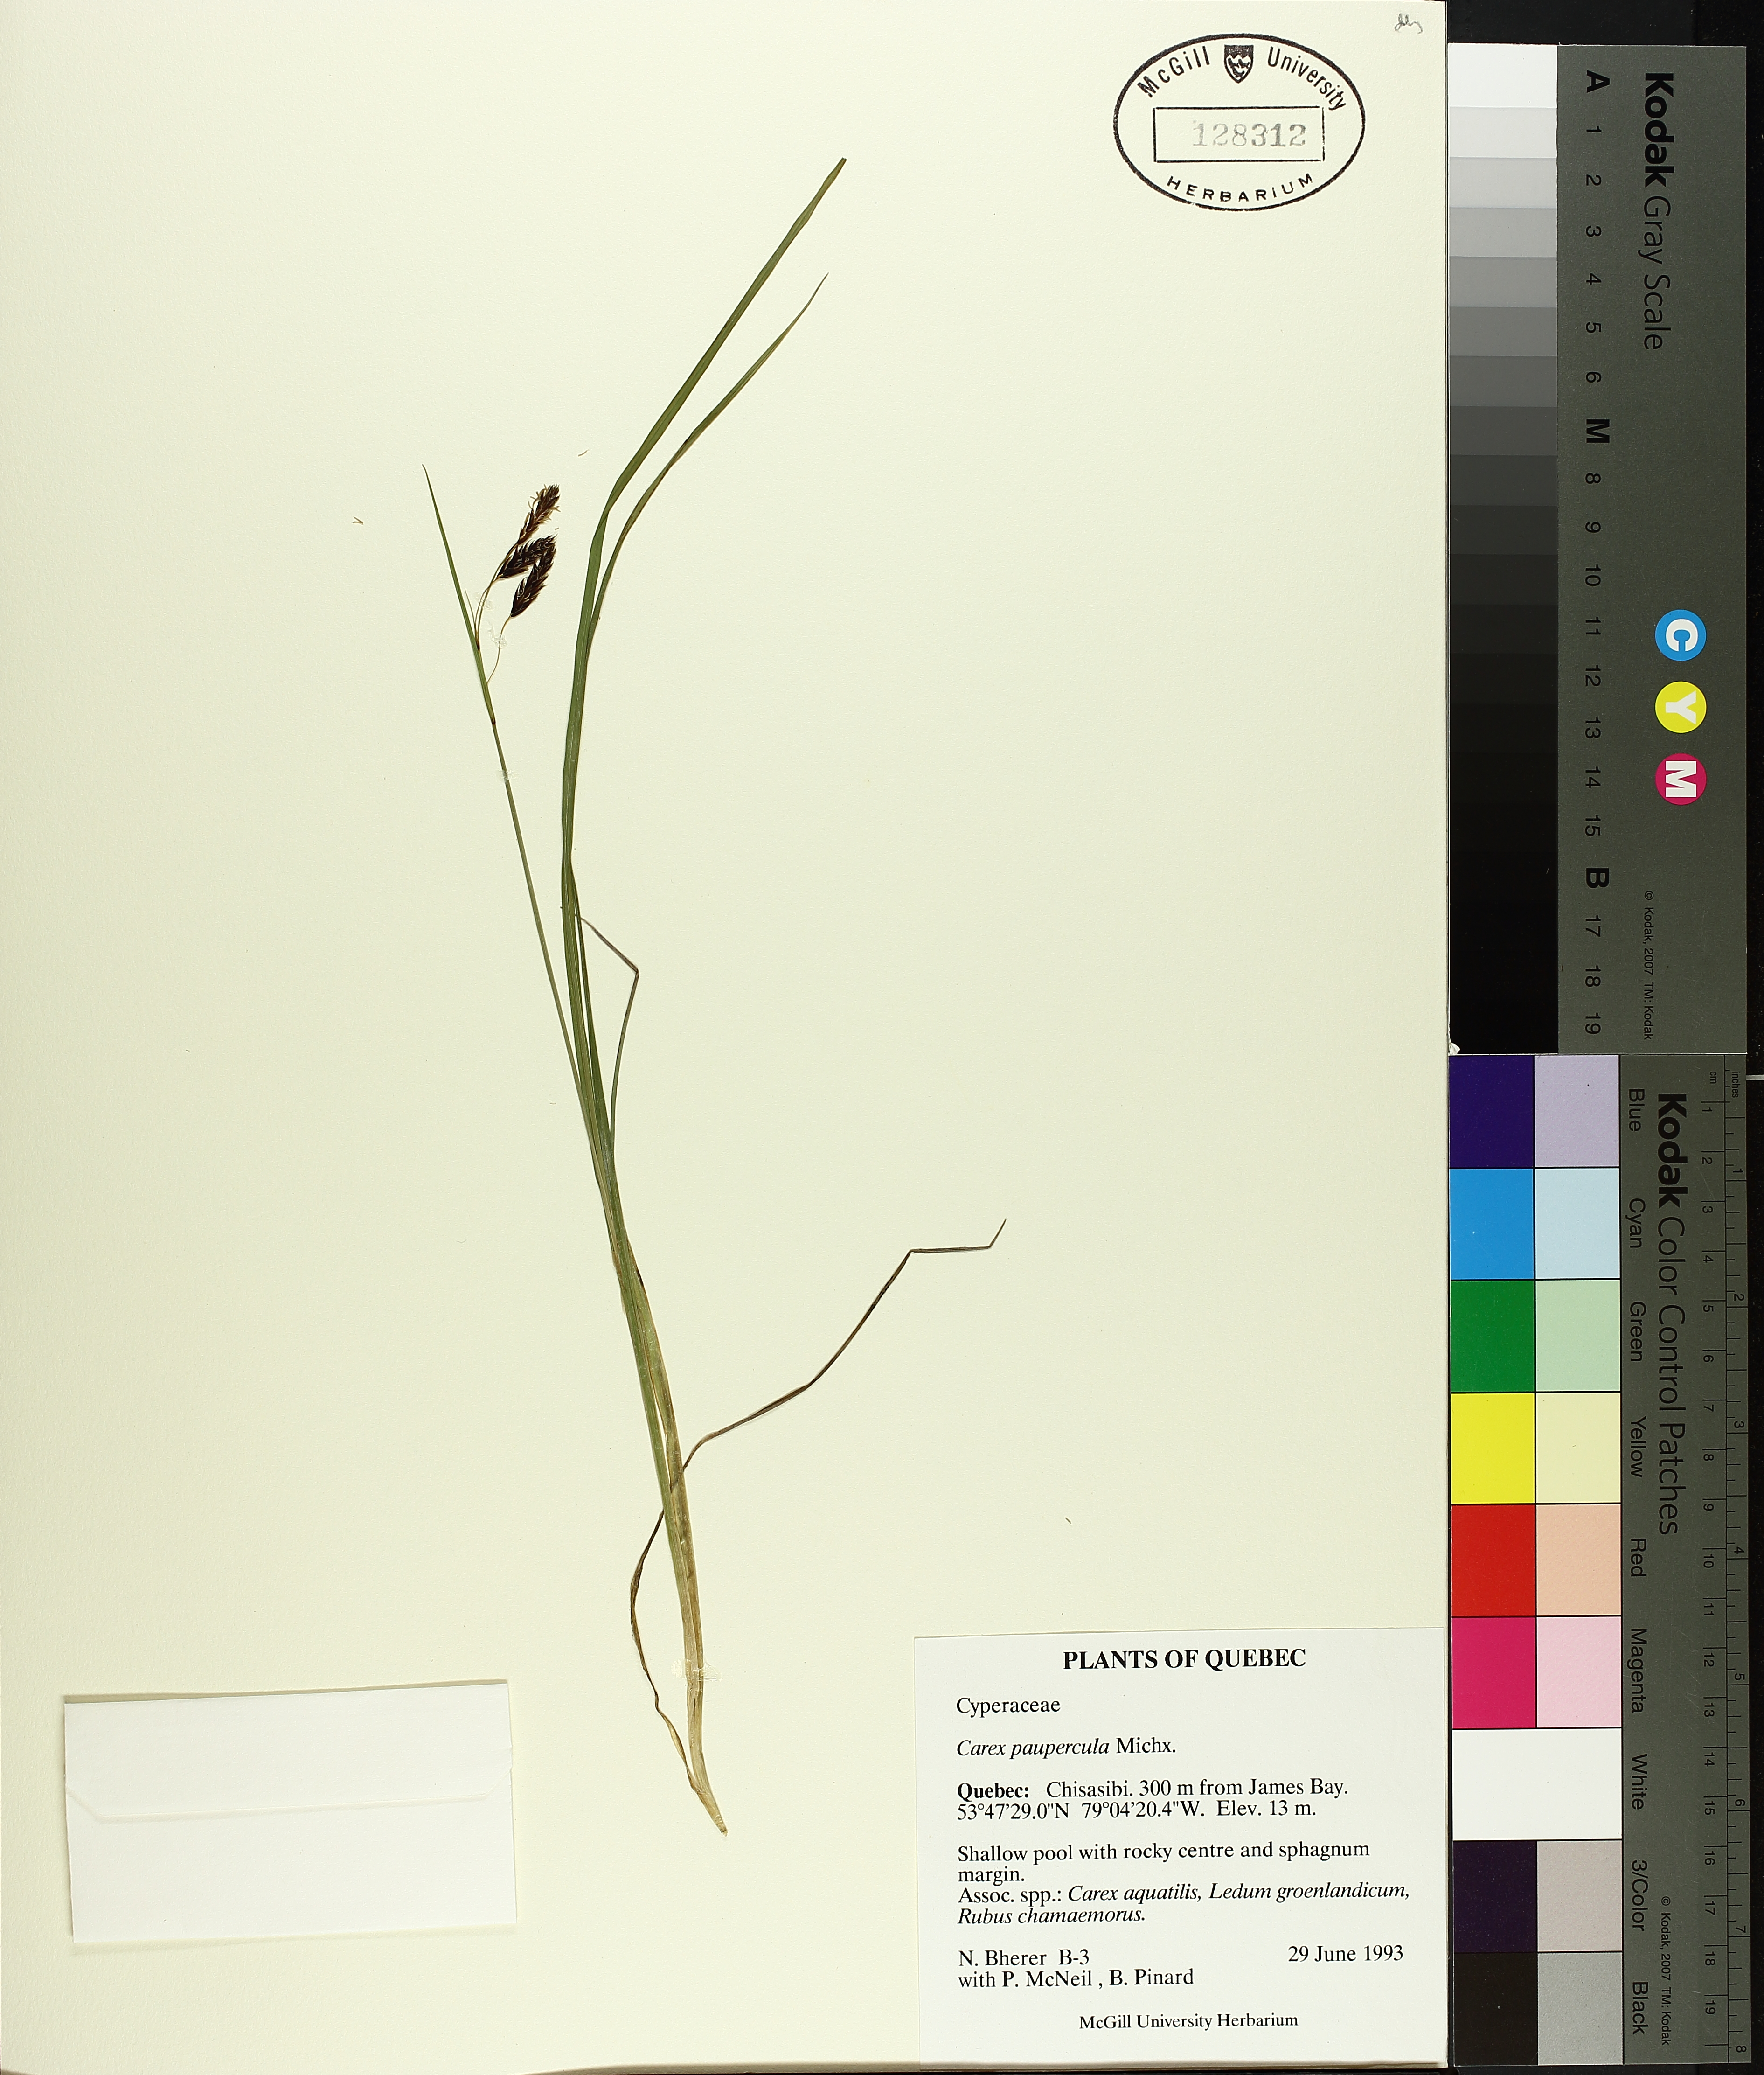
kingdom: Plantae
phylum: Tracheophyta
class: Liliopsida
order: Poales
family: Cyperaceae
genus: Carex
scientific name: Carex magellanica
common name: Bog sedge
